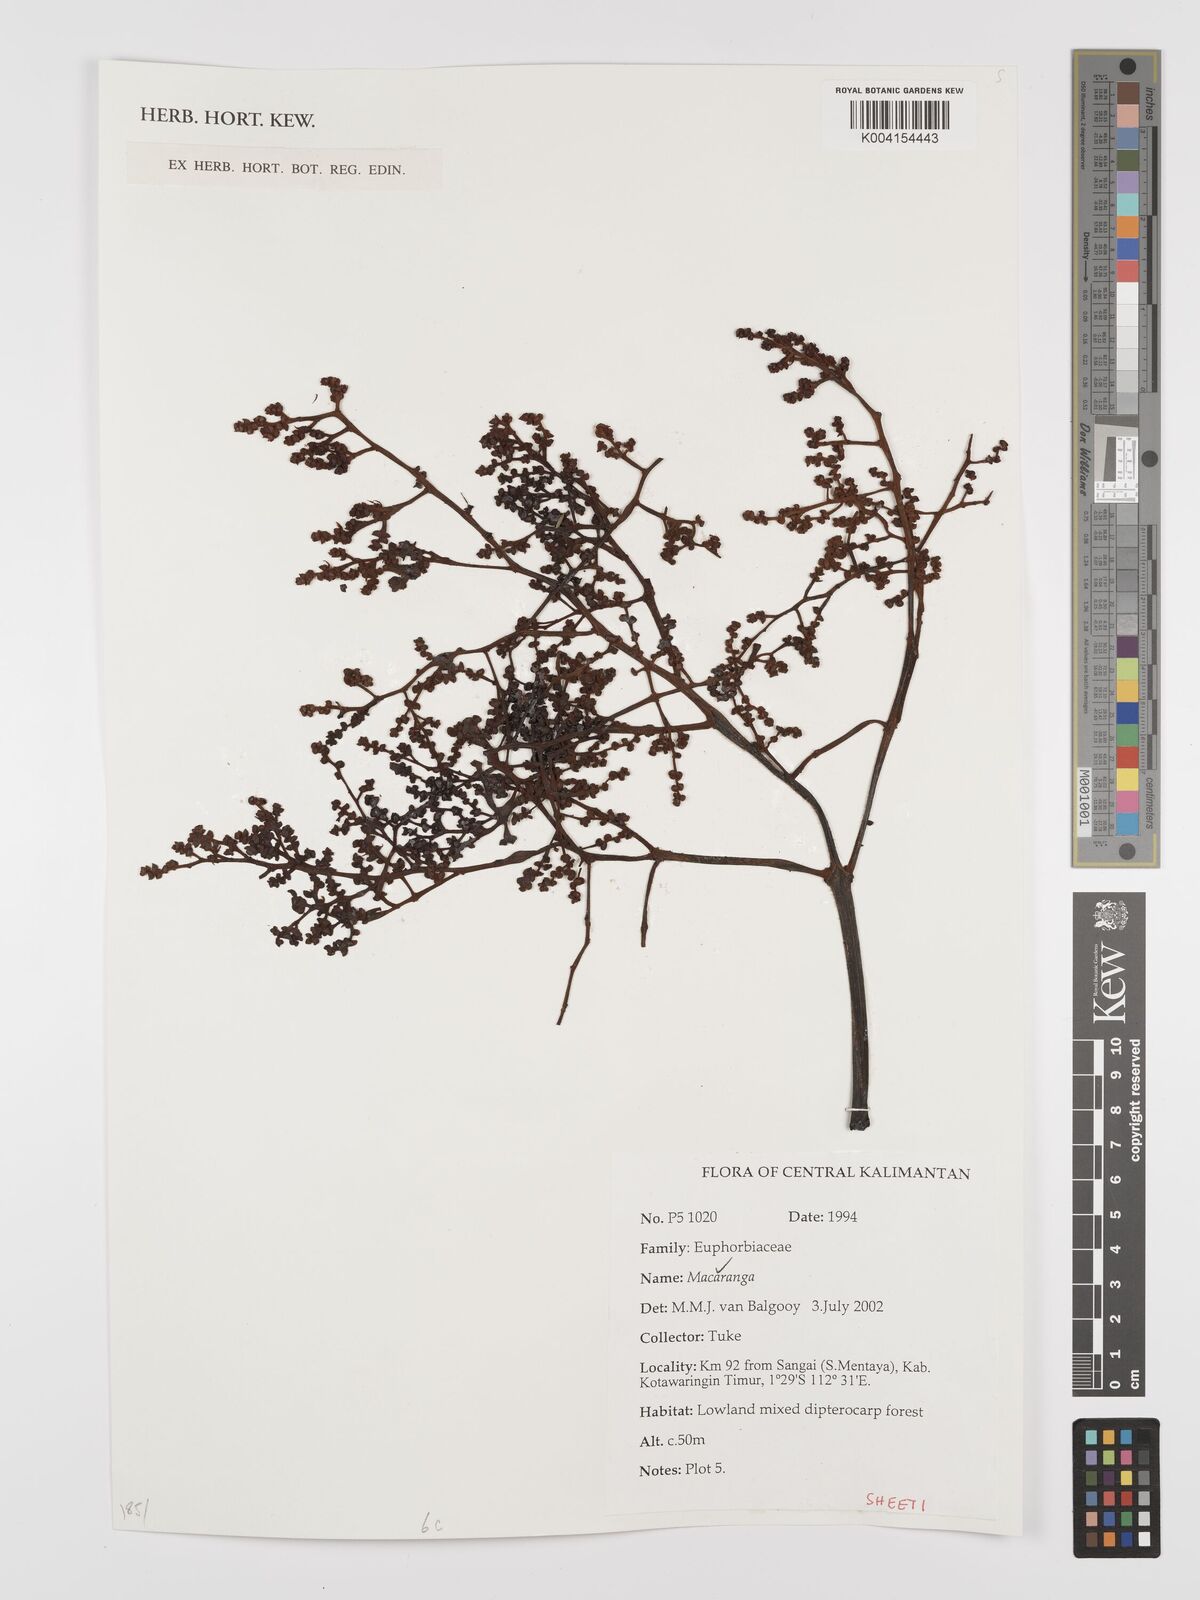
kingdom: Plantae
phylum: Tracheophyta
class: Magnoliopsida
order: Malpighiales
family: Euphorbiaceae
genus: Macaranga
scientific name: Macaranga
